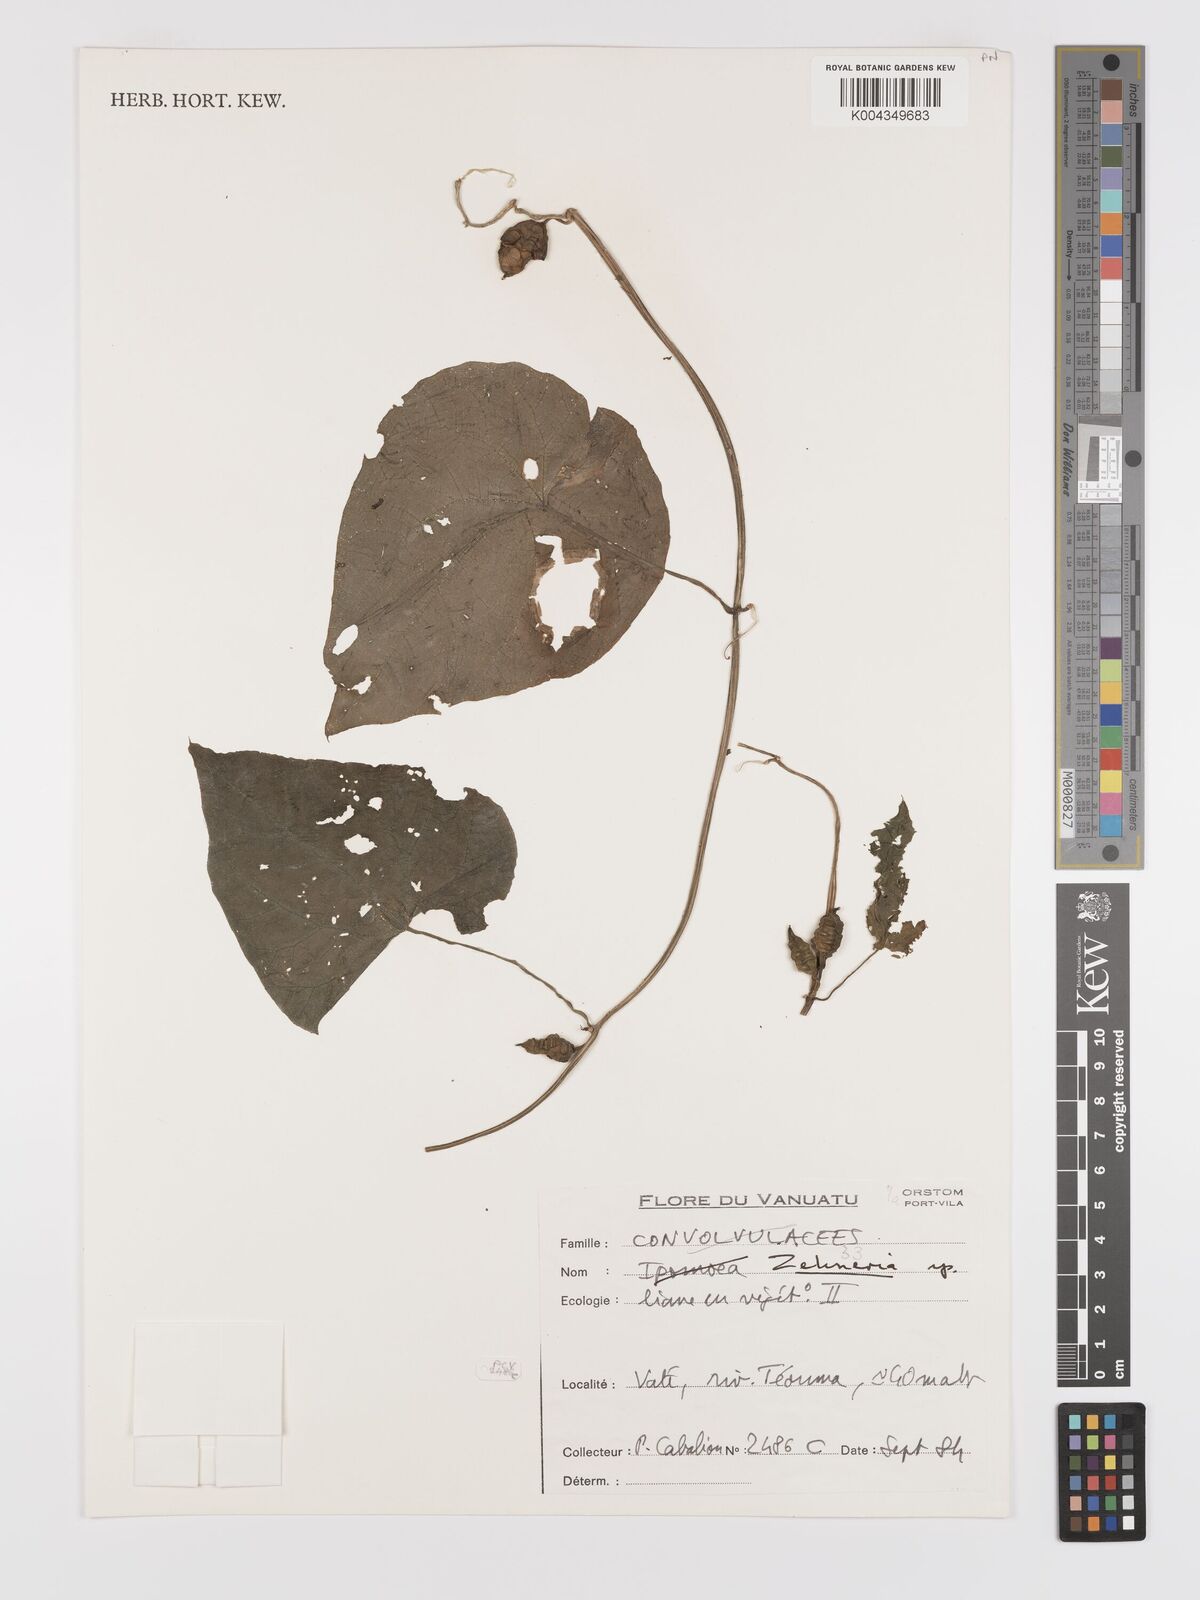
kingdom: Plantae
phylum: Tracheophyta
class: Magnoliopsida
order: Cucurbitales
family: Cucurbitaceae
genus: Zehneria
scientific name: Zehneria
